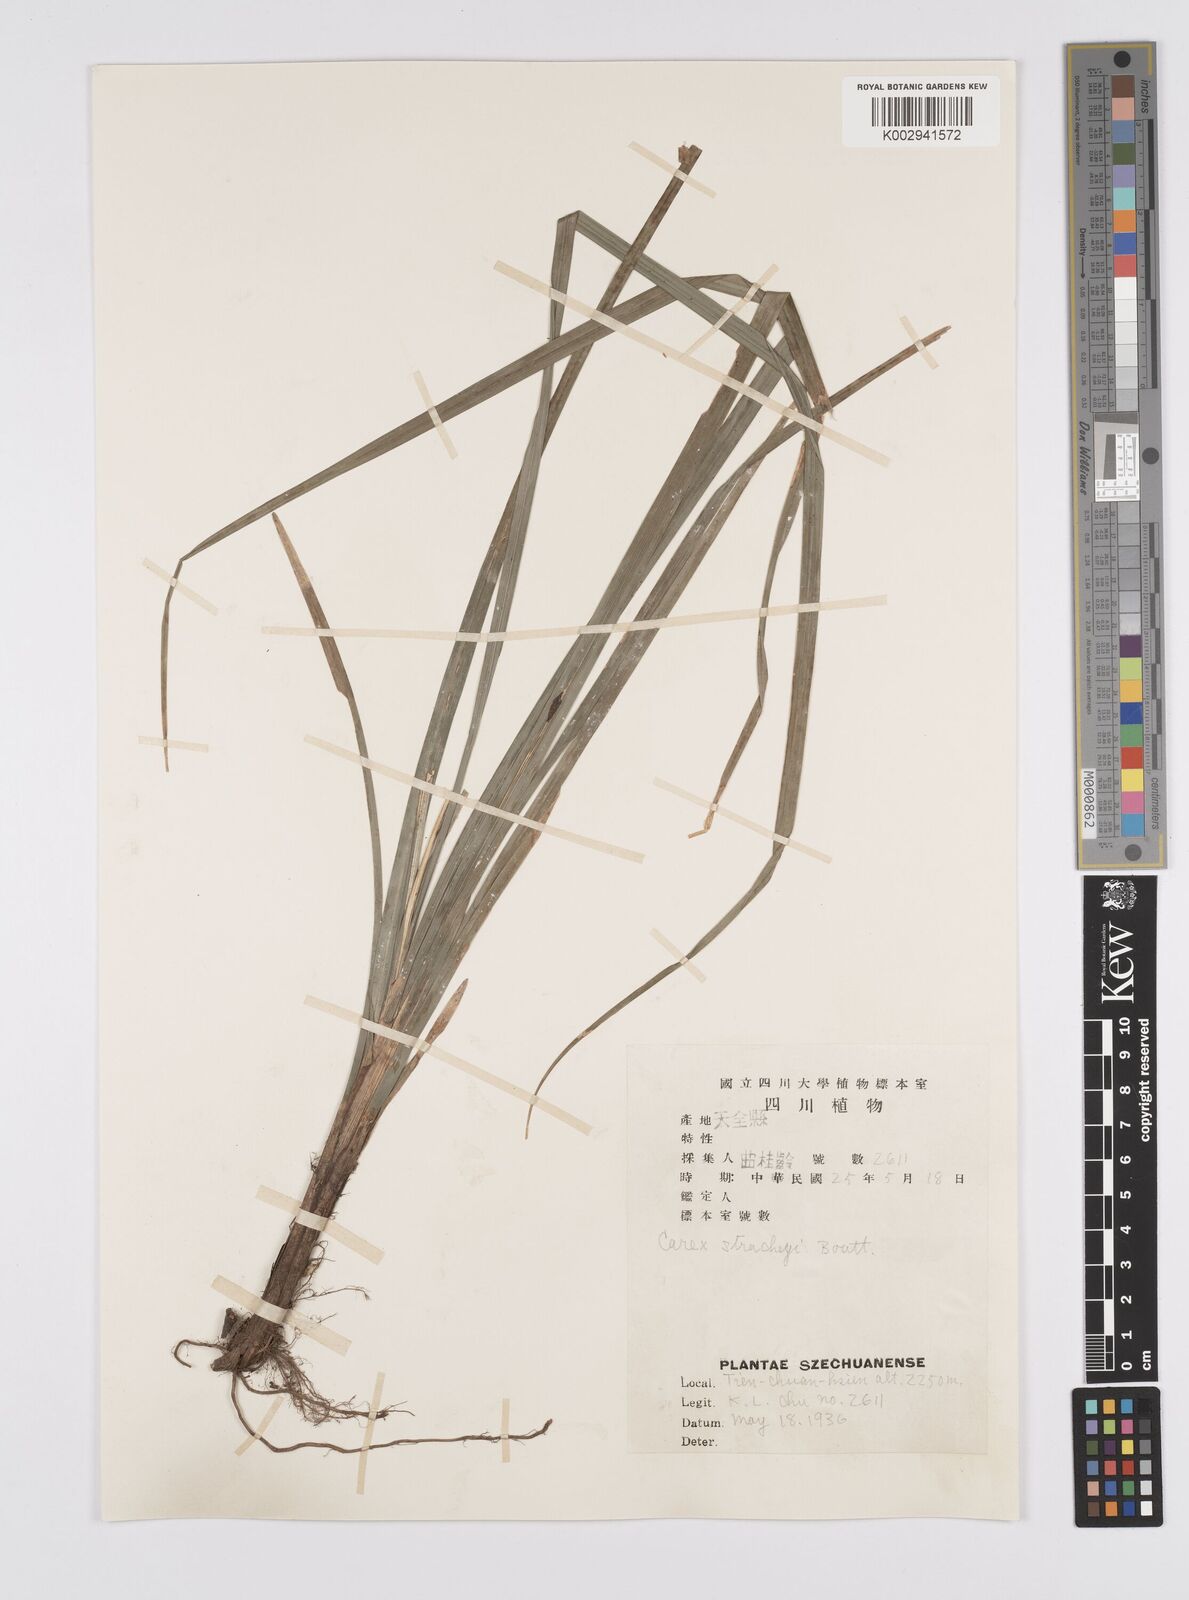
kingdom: Plantae
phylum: Tracheophyta
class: Liliopsida
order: Poales
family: Cyperaceae
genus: Carex
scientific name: Carex stracheyi
